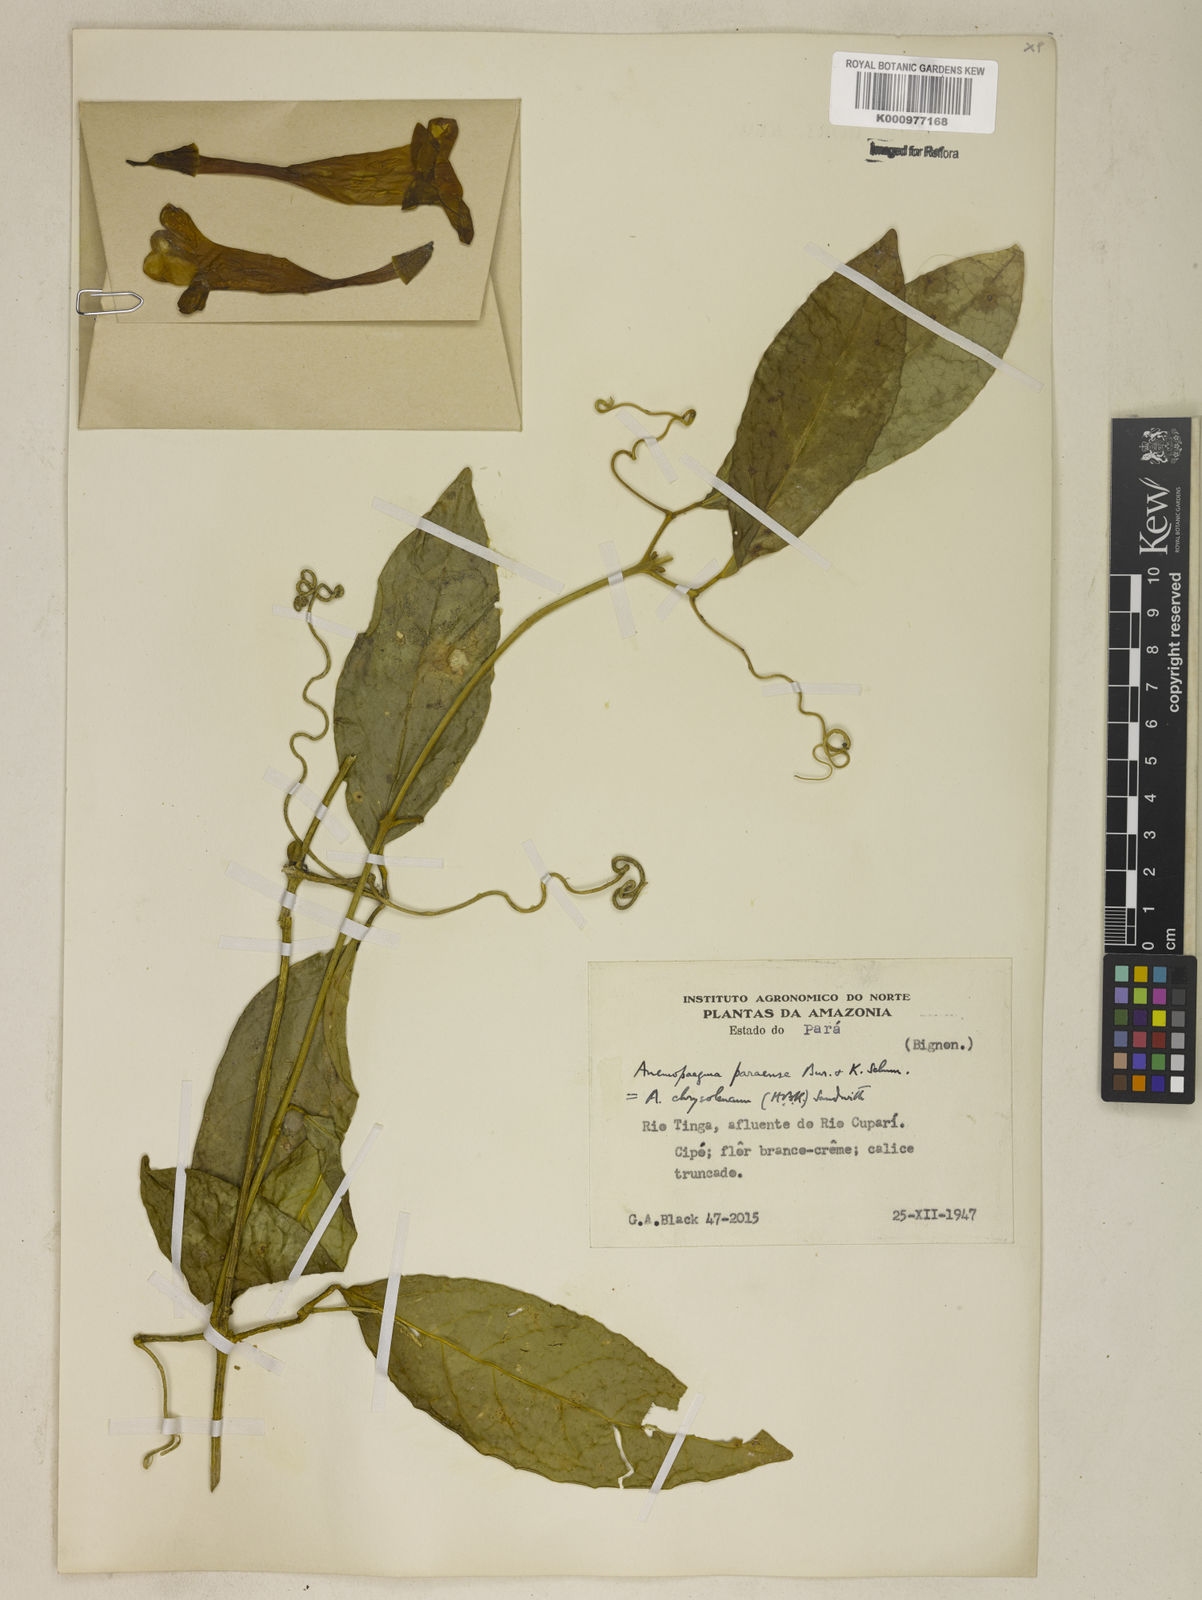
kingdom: Plantae
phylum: Tracheophyta
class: Magnoliopsida
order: Lamiales
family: Bignoniaceae
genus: Anemopaegma
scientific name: Anemopaegma
